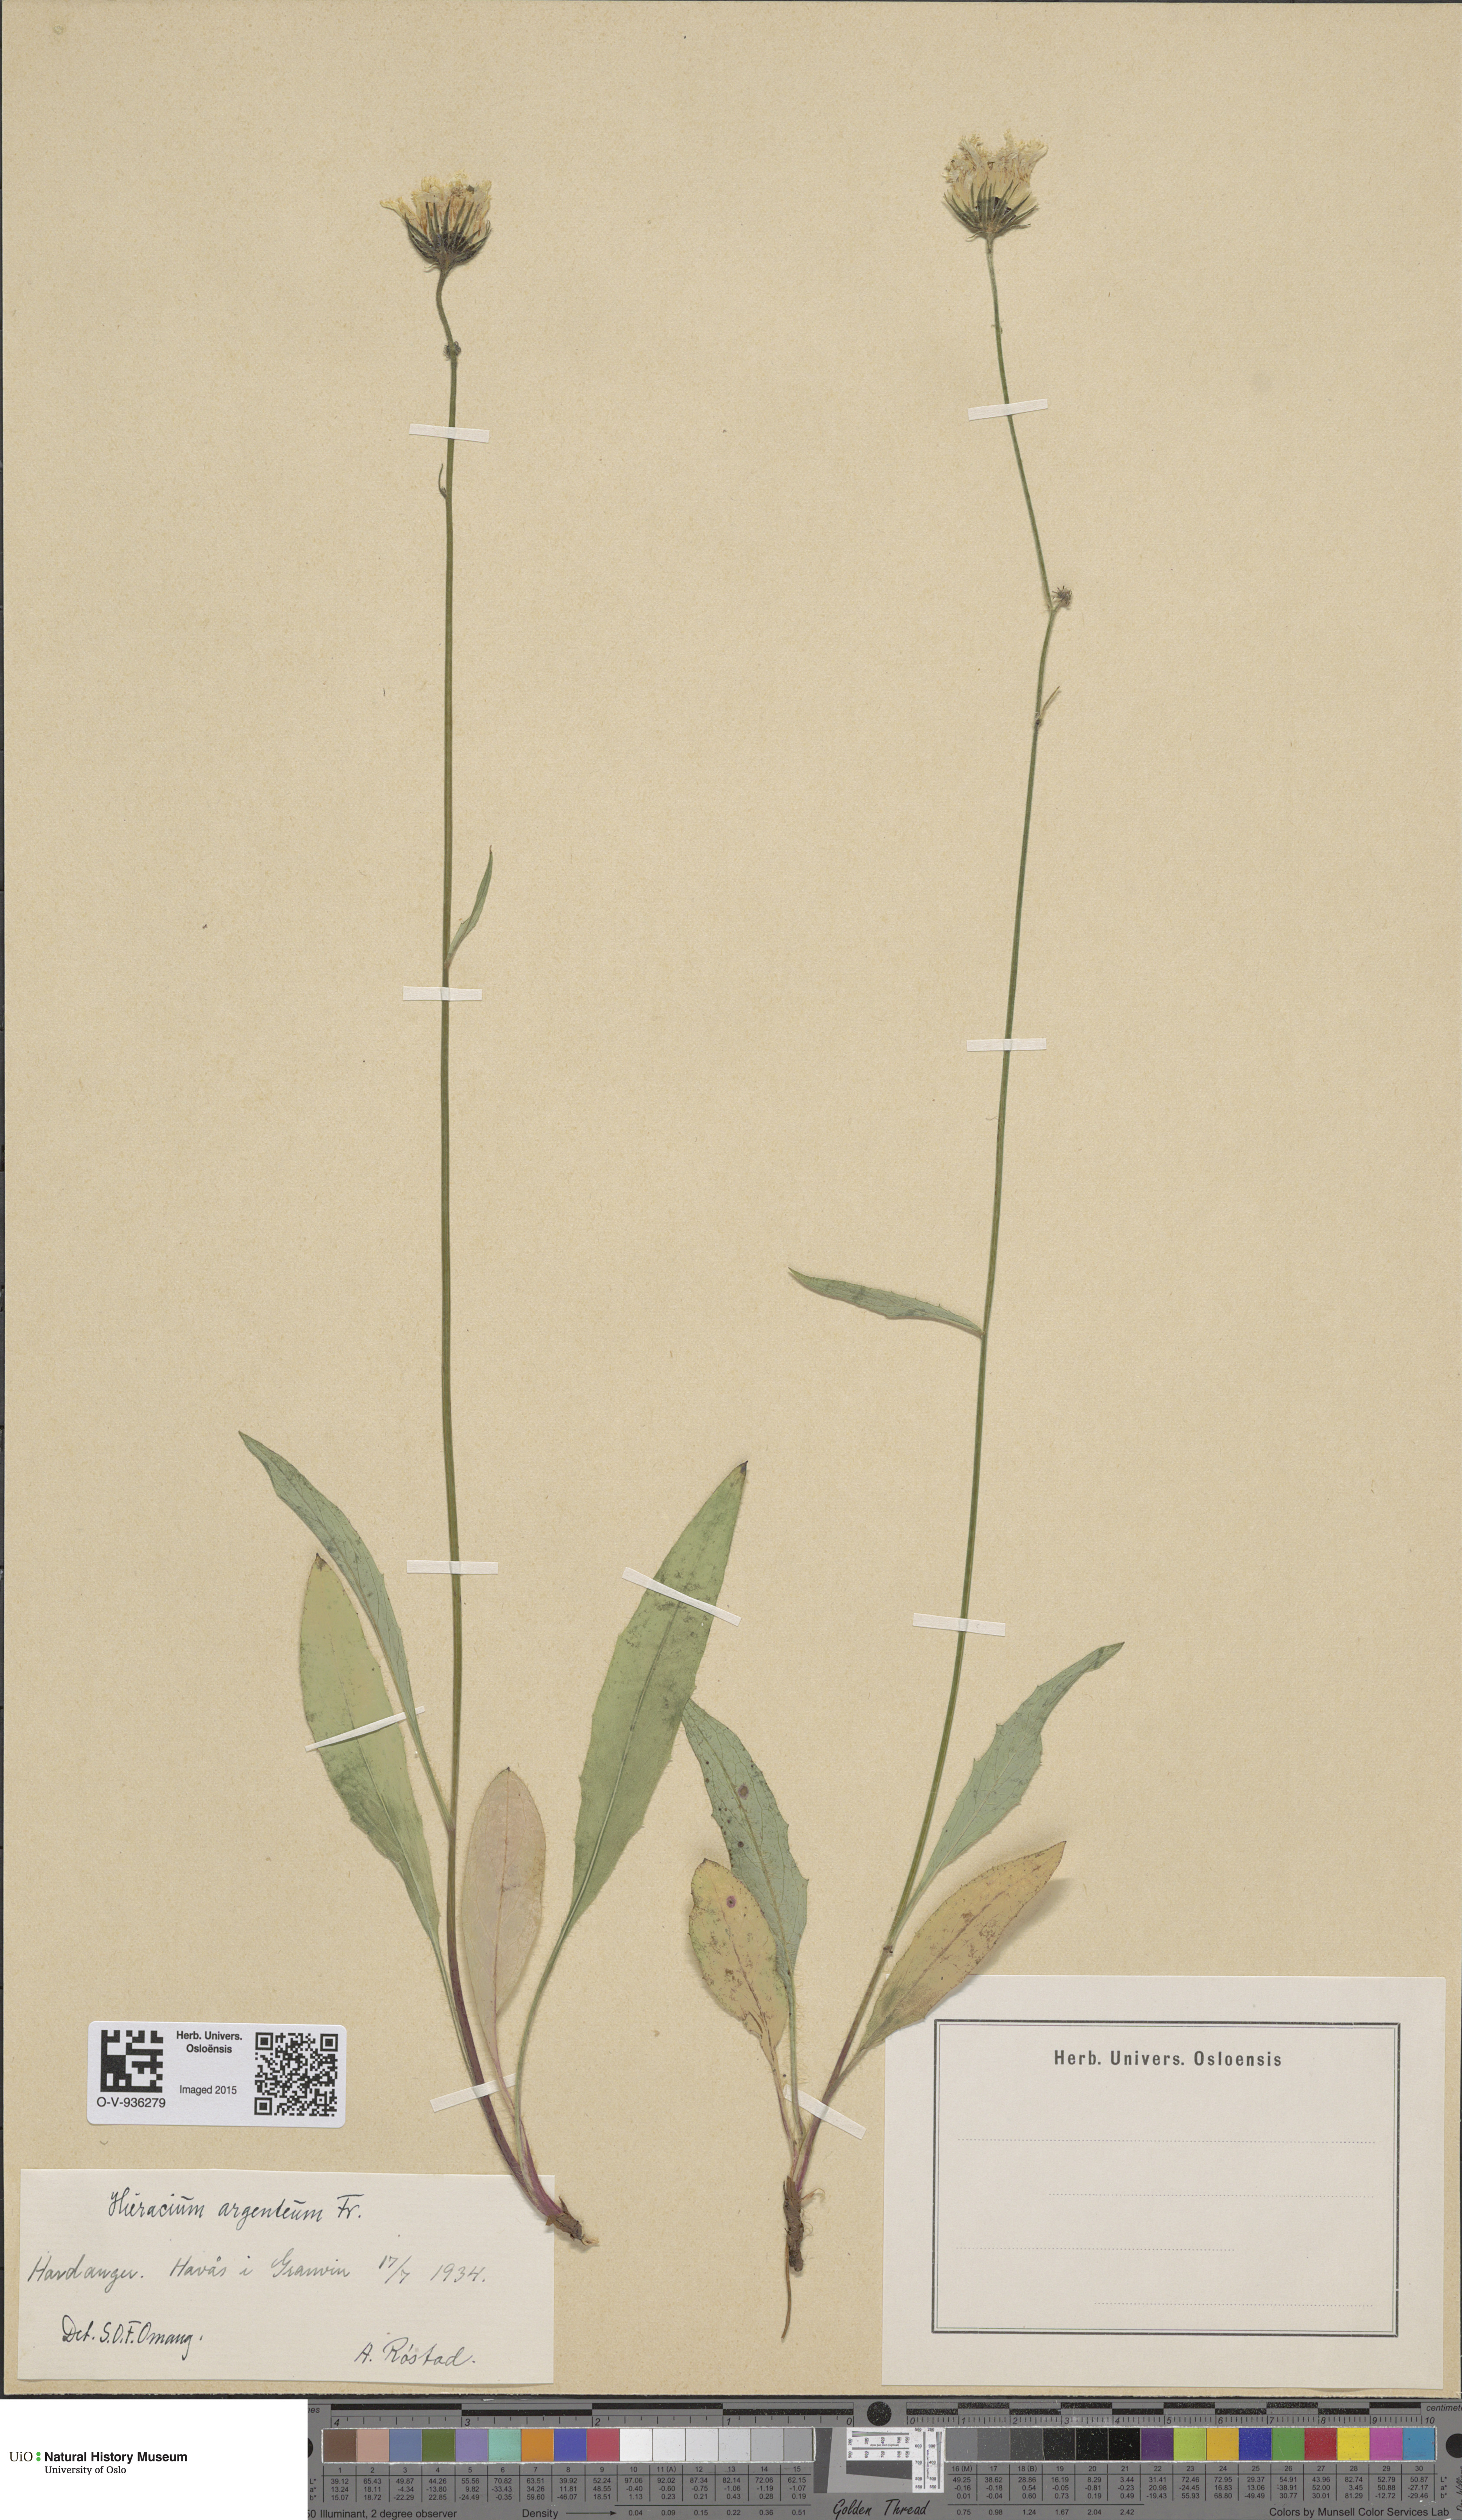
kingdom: Plantae
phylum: Tracheophyta
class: Magnoliopsida
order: Asterales
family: Asteraceae
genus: Hieracium
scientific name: Hieracium argenteum
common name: Silver hawkweed
